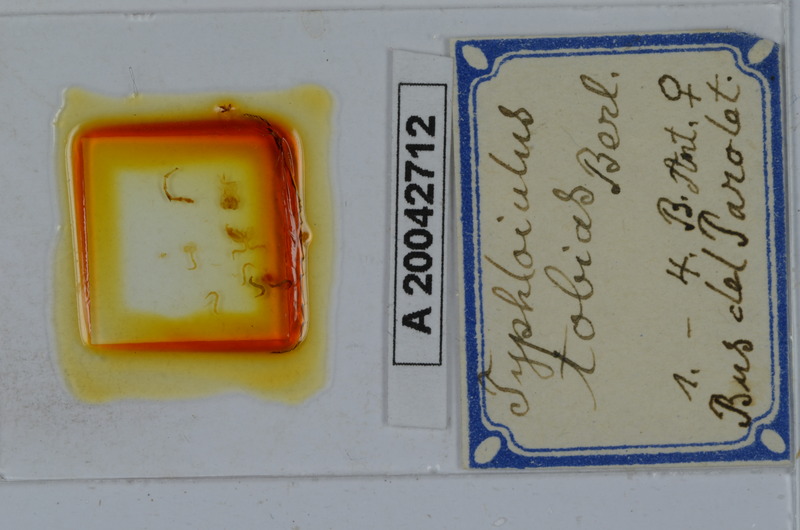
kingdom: Animalia
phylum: Arthropoda
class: Diplopoda
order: Julida
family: Julidae
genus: Stygiiulus
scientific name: Stygiiulus tobias
